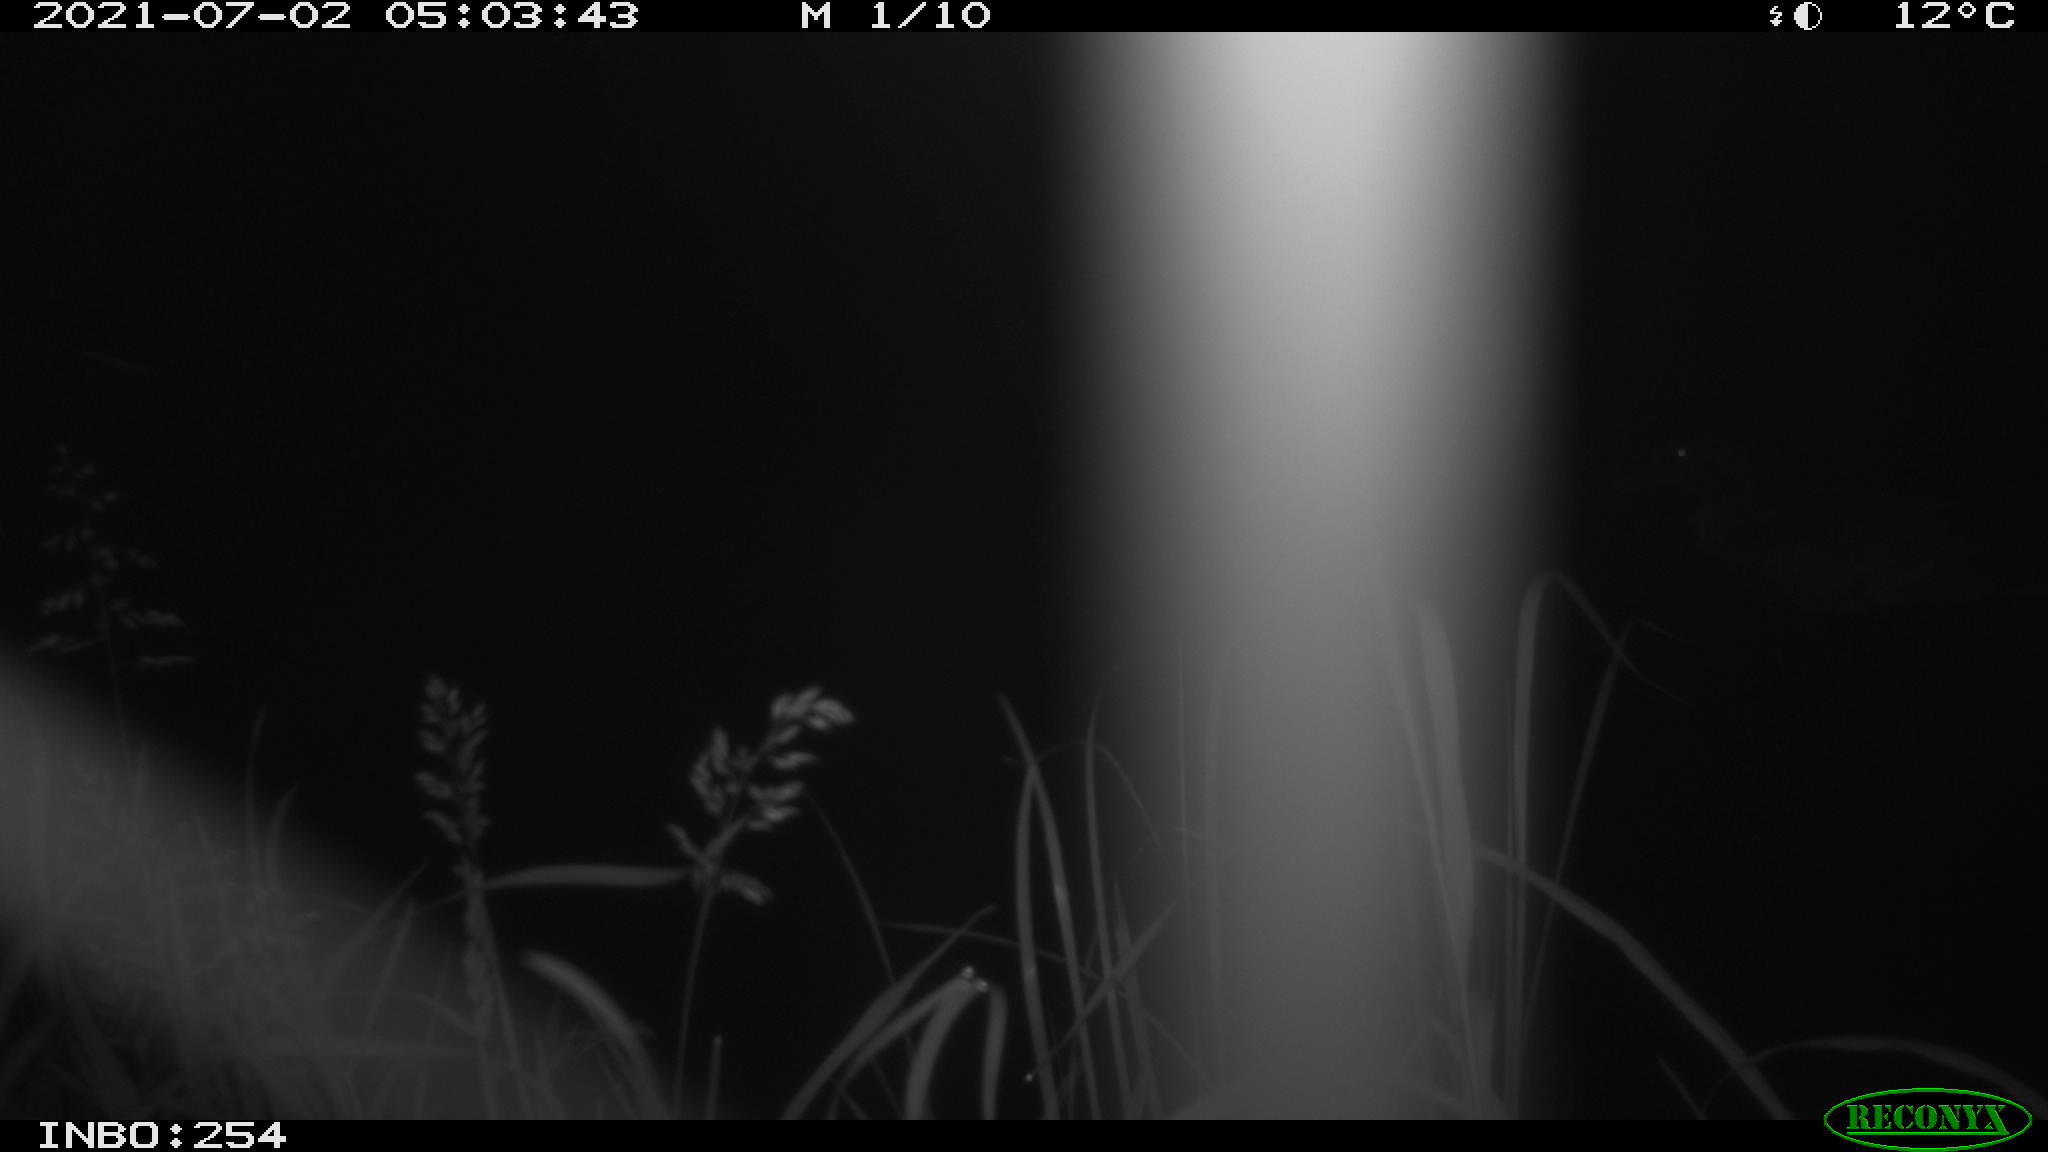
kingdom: Animalia
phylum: Chordata
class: Aves
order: Anseriformes
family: Anatidae
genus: Anas
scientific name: Anas platyrhynchos
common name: Mallard
